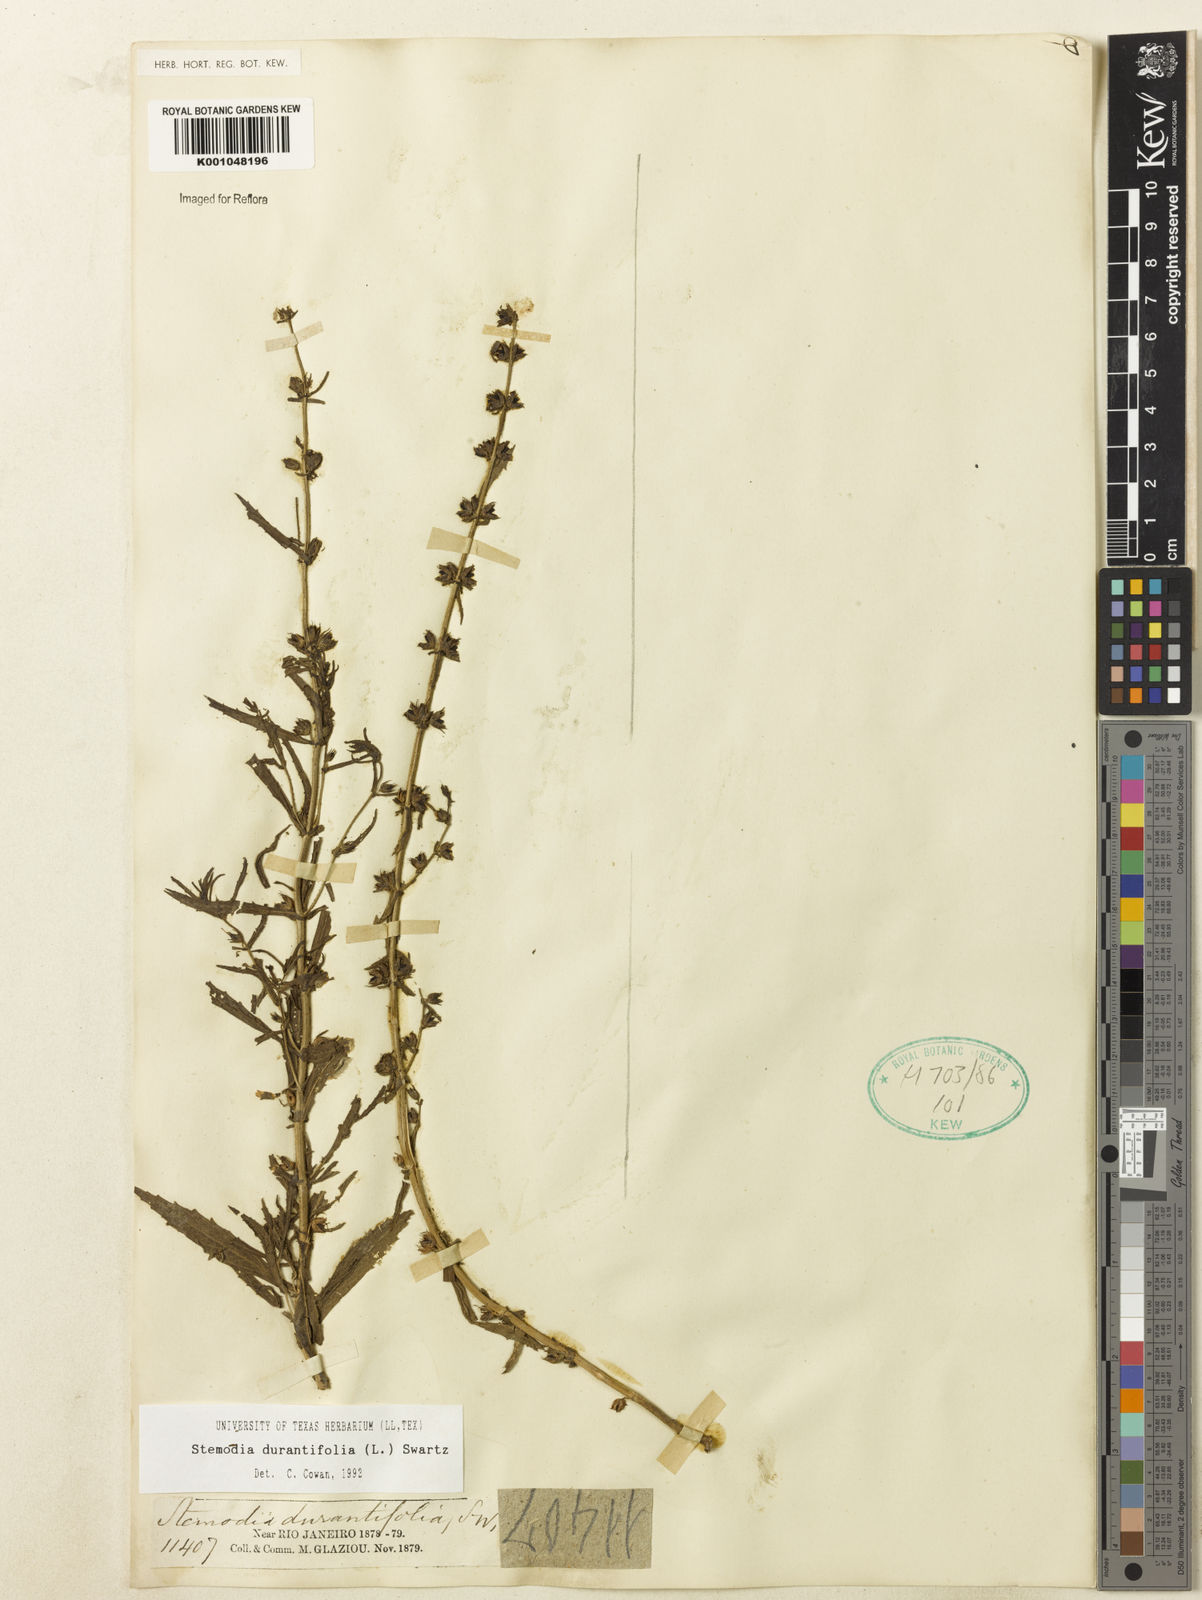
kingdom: Plantae
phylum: Tracheophyta
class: Magnoliopsida
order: Lamiales
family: Plantaginaceae
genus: Stemodia
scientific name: Stemodia durantifolia
